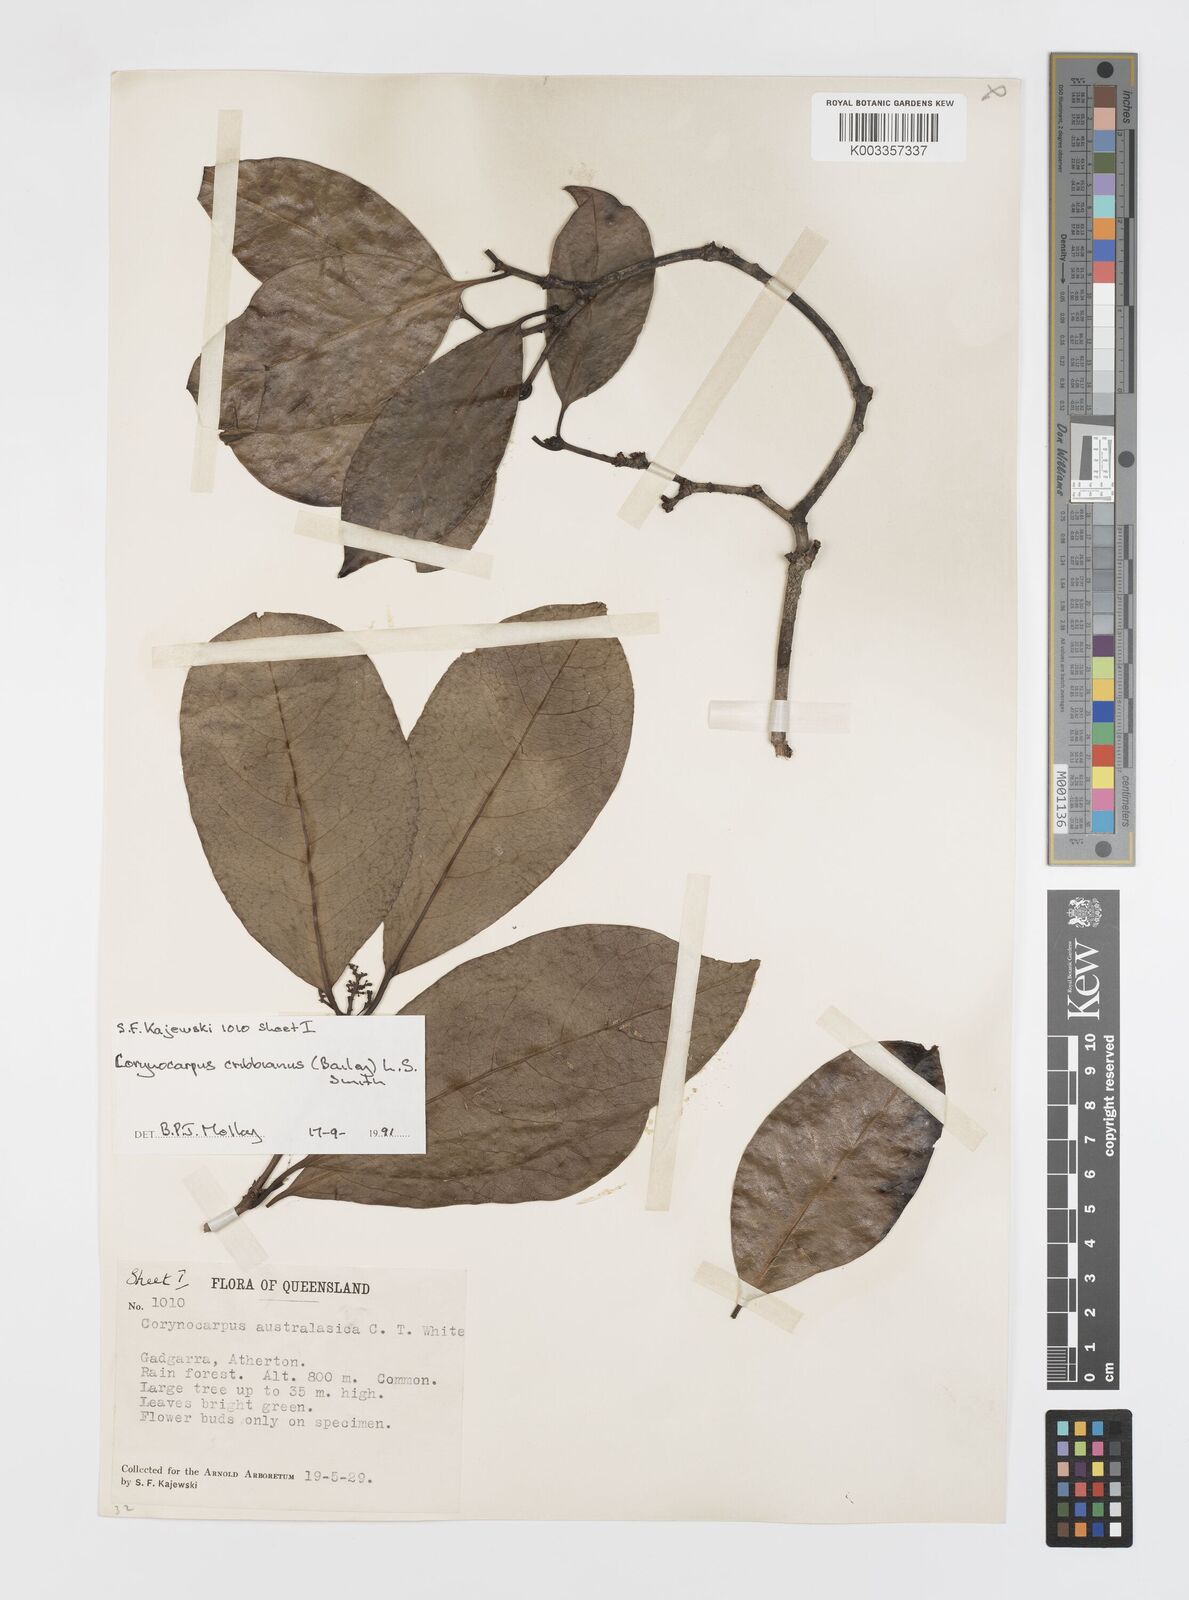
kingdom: Plantae
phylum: Tracheophyta
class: Magnoliopsida
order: Cucurbitales
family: Corynocarpaceae
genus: Corynocarpus
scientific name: Corynocarpus cribbianus
